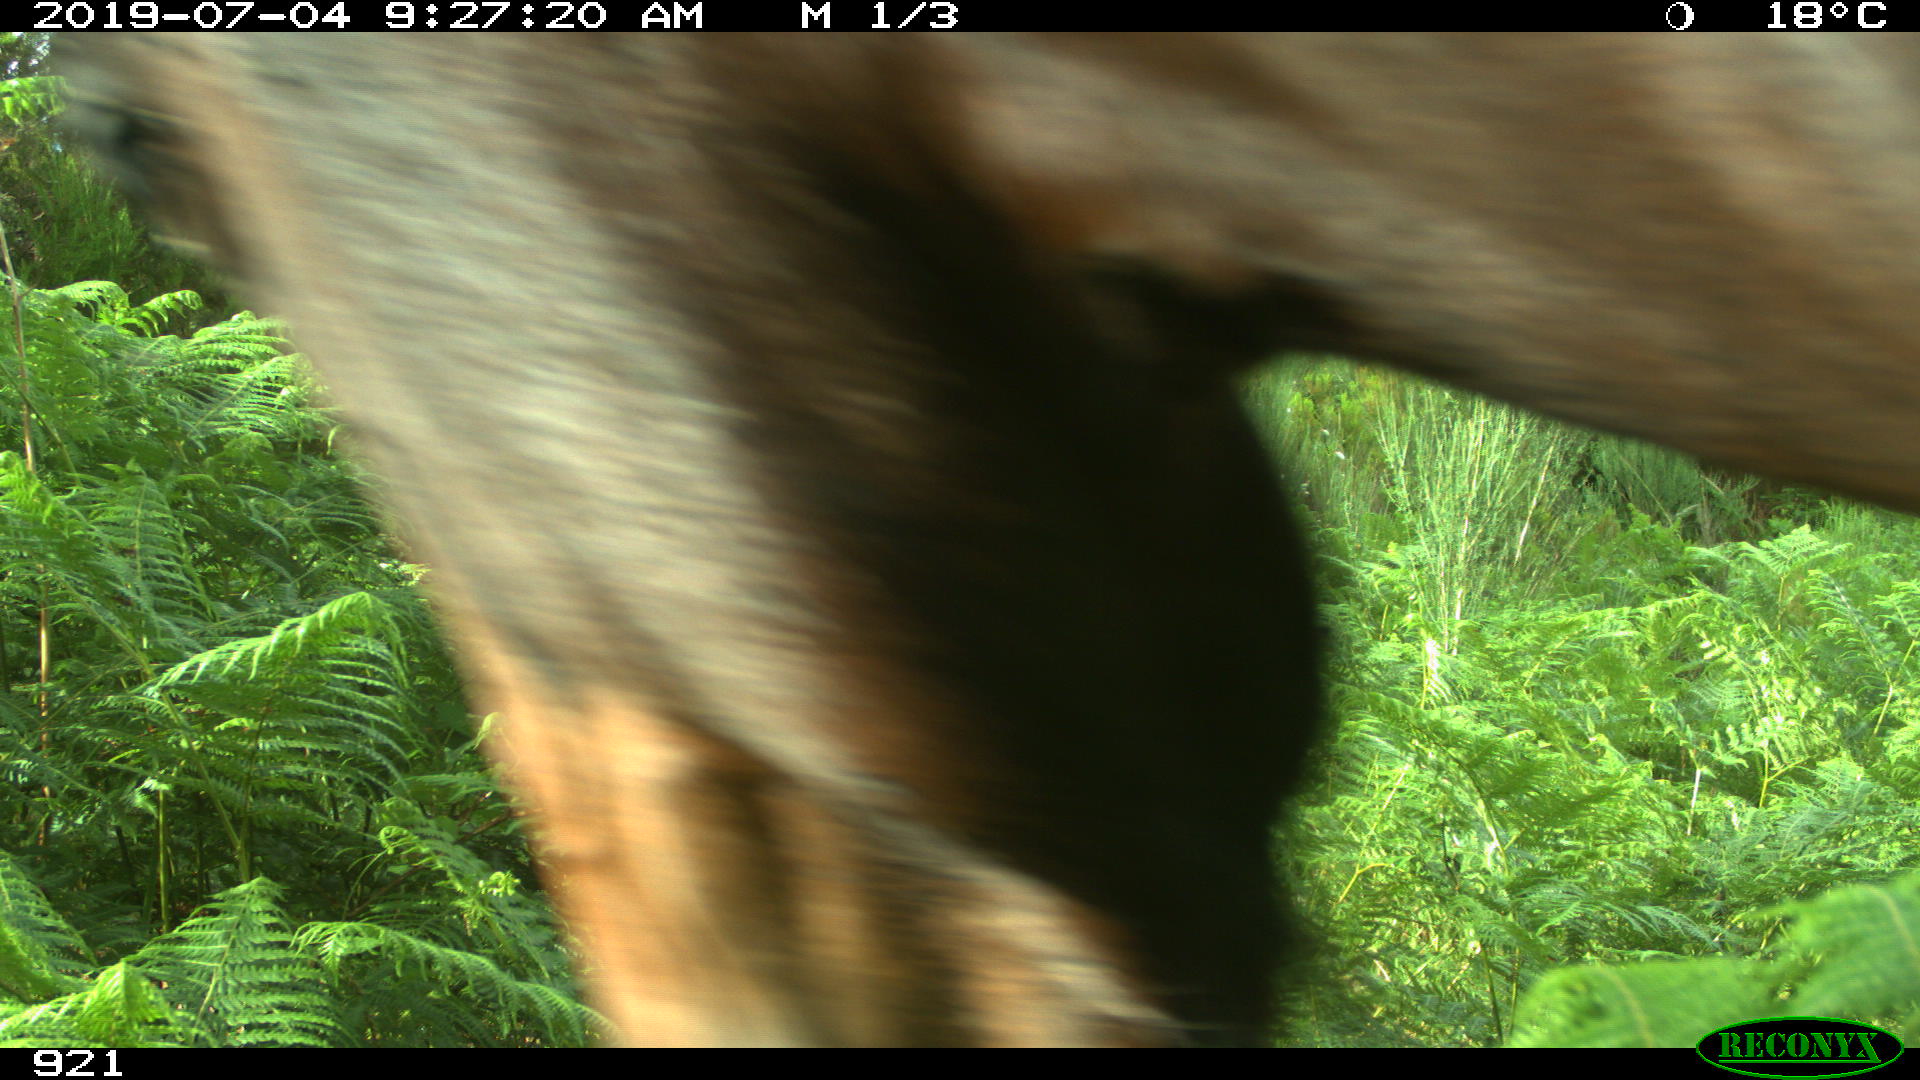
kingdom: Animalia
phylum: Chordata
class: Mammalia
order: Perissodactyla
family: Equidae
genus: Equus
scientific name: Equus caballus
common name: Horse
